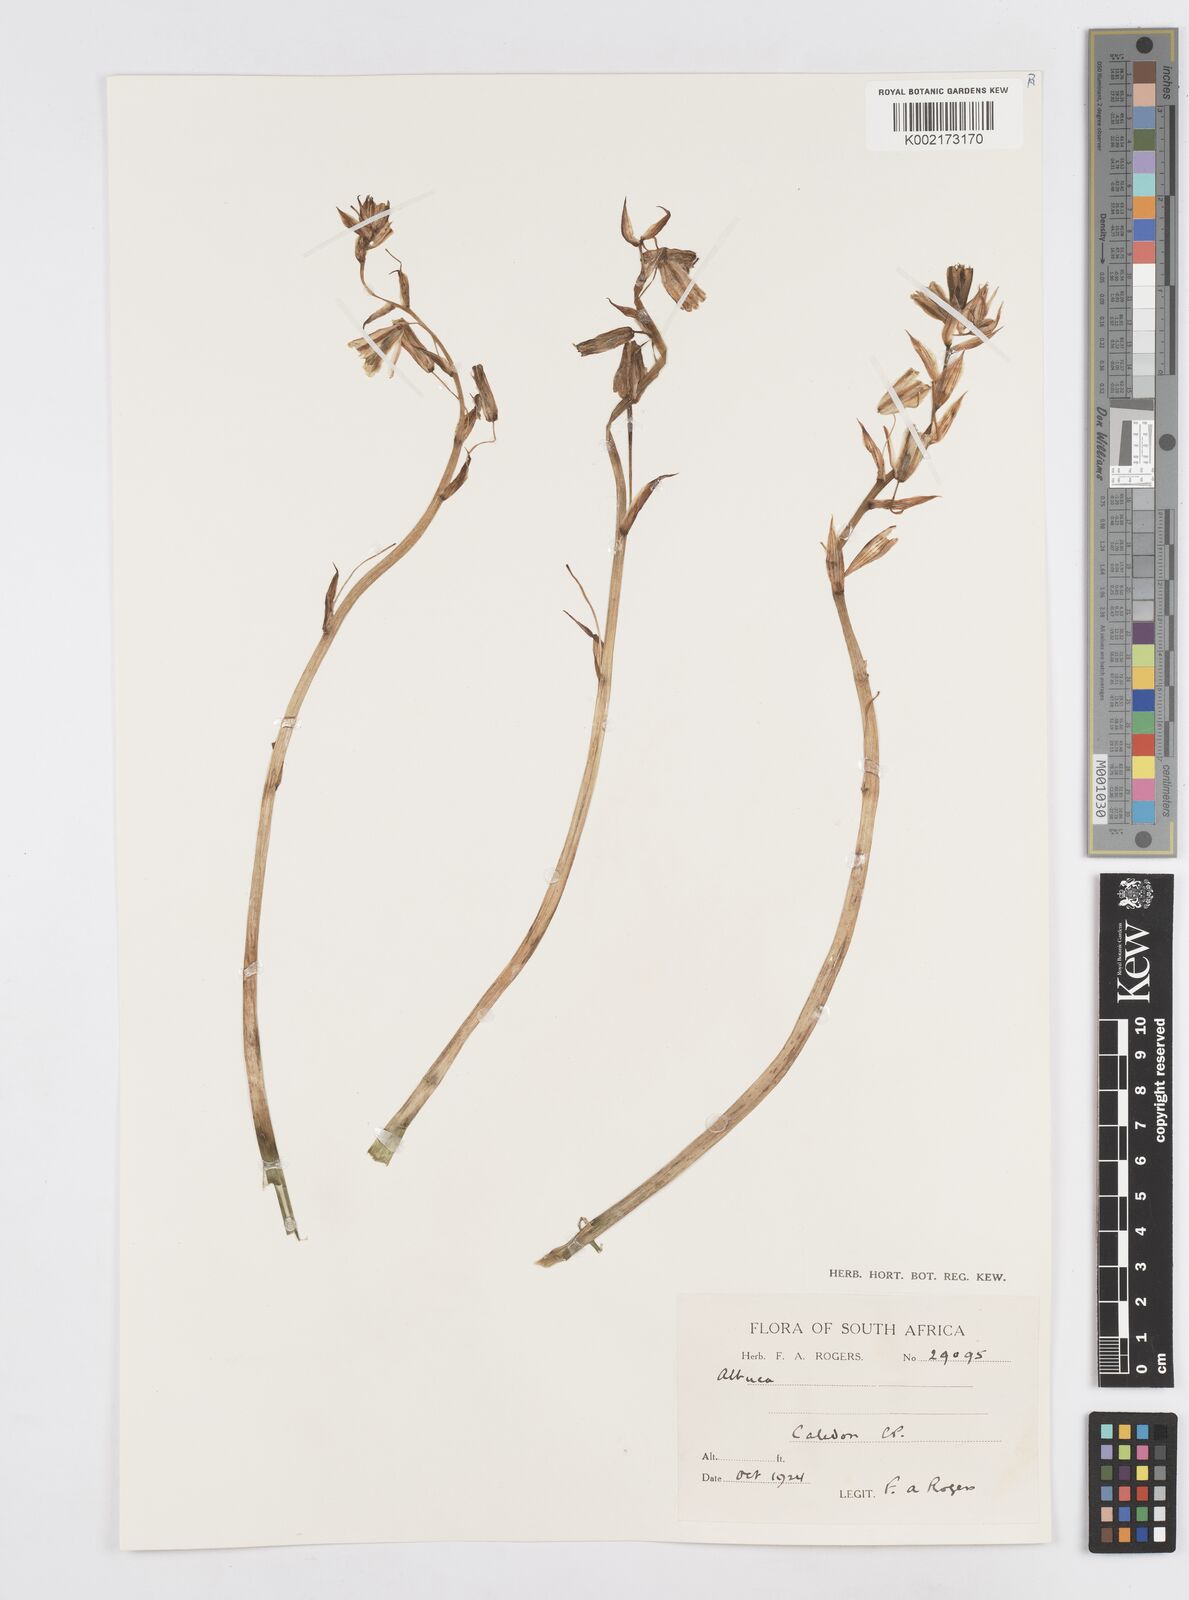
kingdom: Plantae
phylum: Tracheophyta
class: Liliopsida
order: Asparagales
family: Asparagaceae
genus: Albuca
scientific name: Albuca
